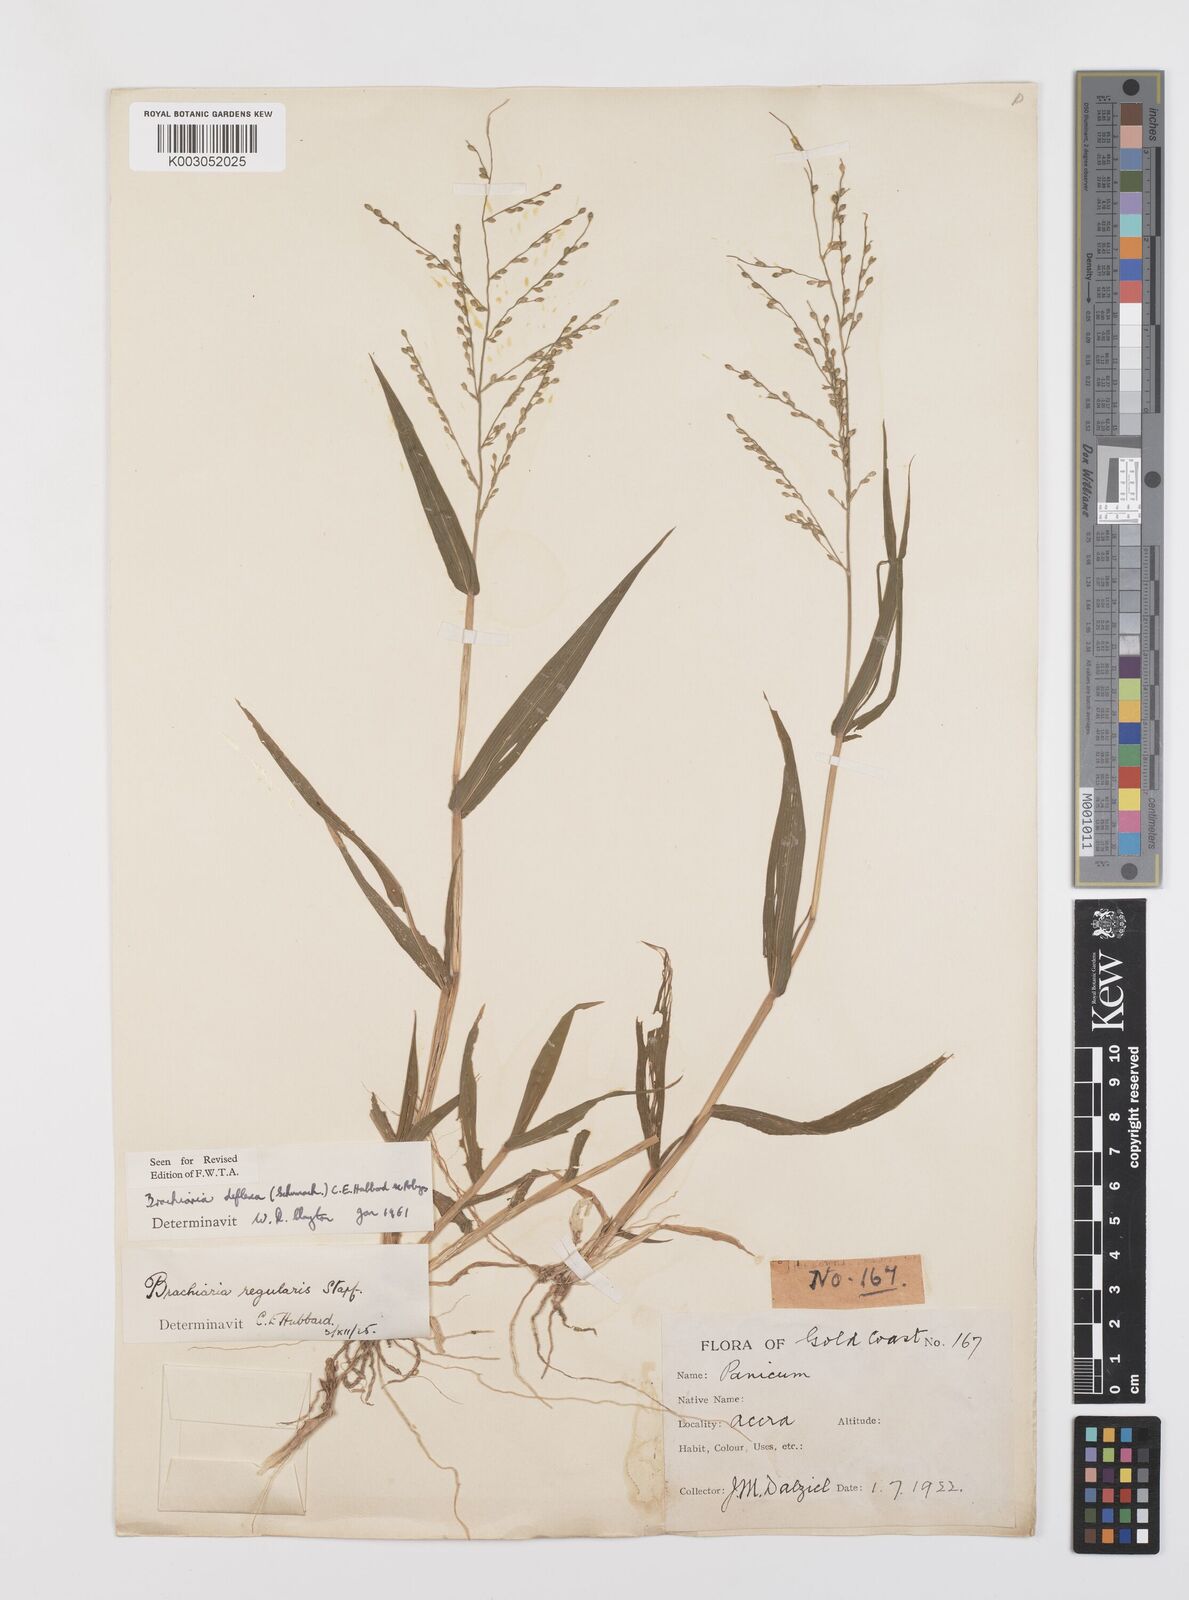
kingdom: Plantae
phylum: Tracheophyta
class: Liliopsida
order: Poales
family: Poaceae
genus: Urochloa
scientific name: Urochloa deflexa
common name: Guinea millet
